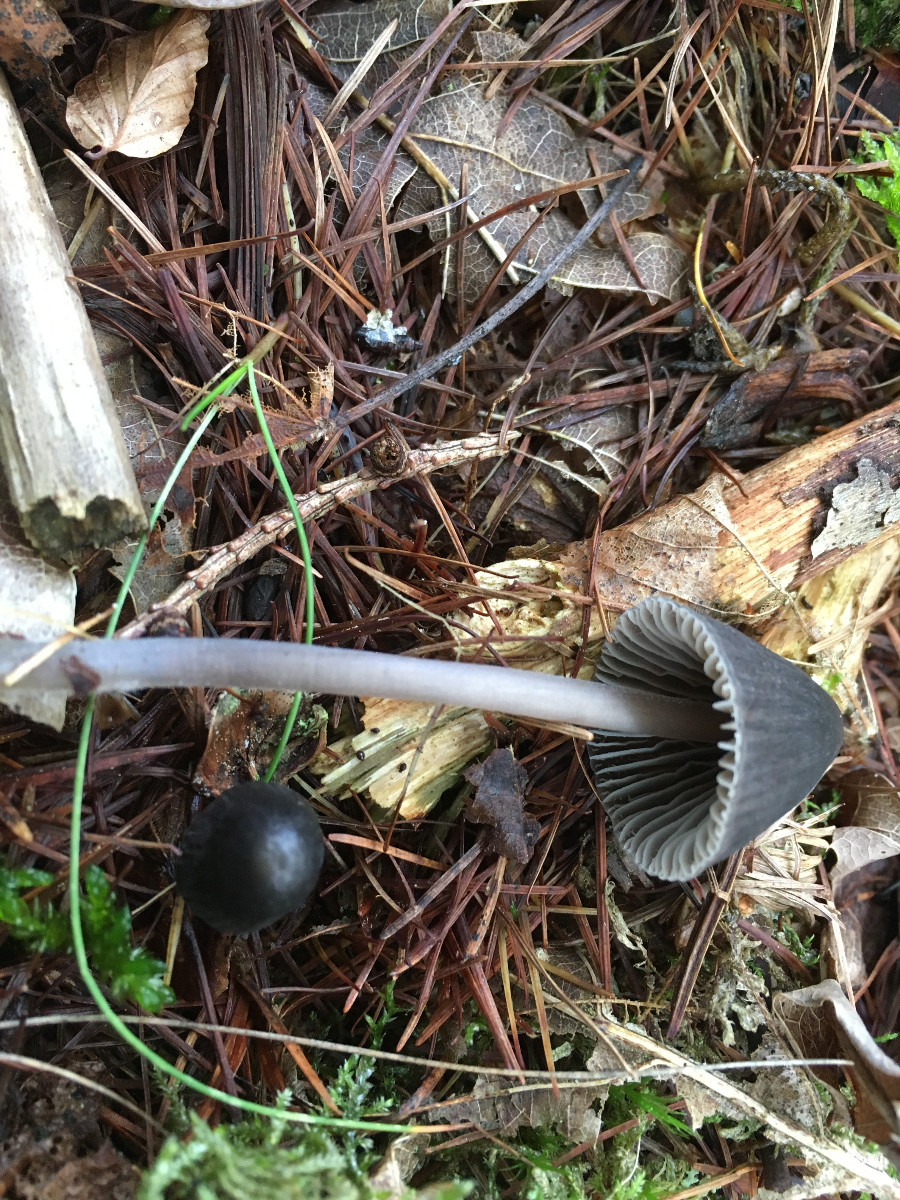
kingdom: Fungi
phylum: Basidiomycota
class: Agaricomycetes
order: Agaricales
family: Mycenaceae
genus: Mycena
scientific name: Mycena
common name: huesvamp
